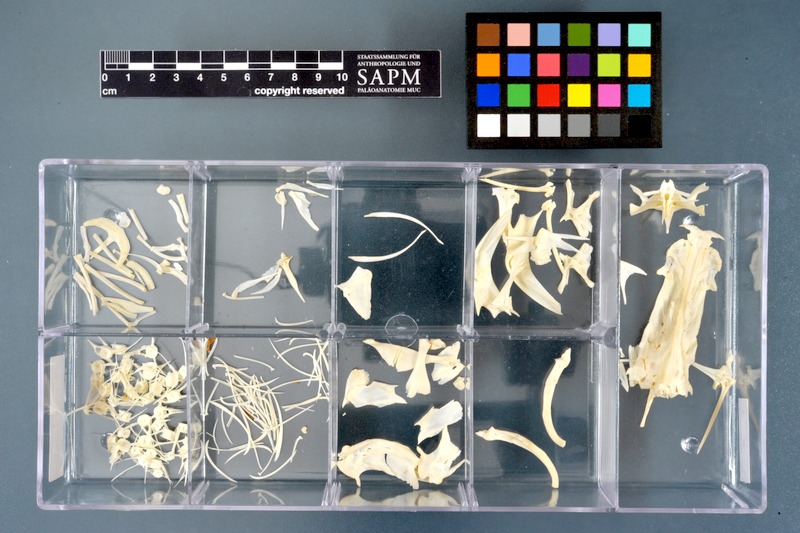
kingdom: Animalia
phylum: Chordata
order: Siluriformes
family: Bagridae
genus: Bagrus
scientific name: Bagrus bajad
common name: Bayad
